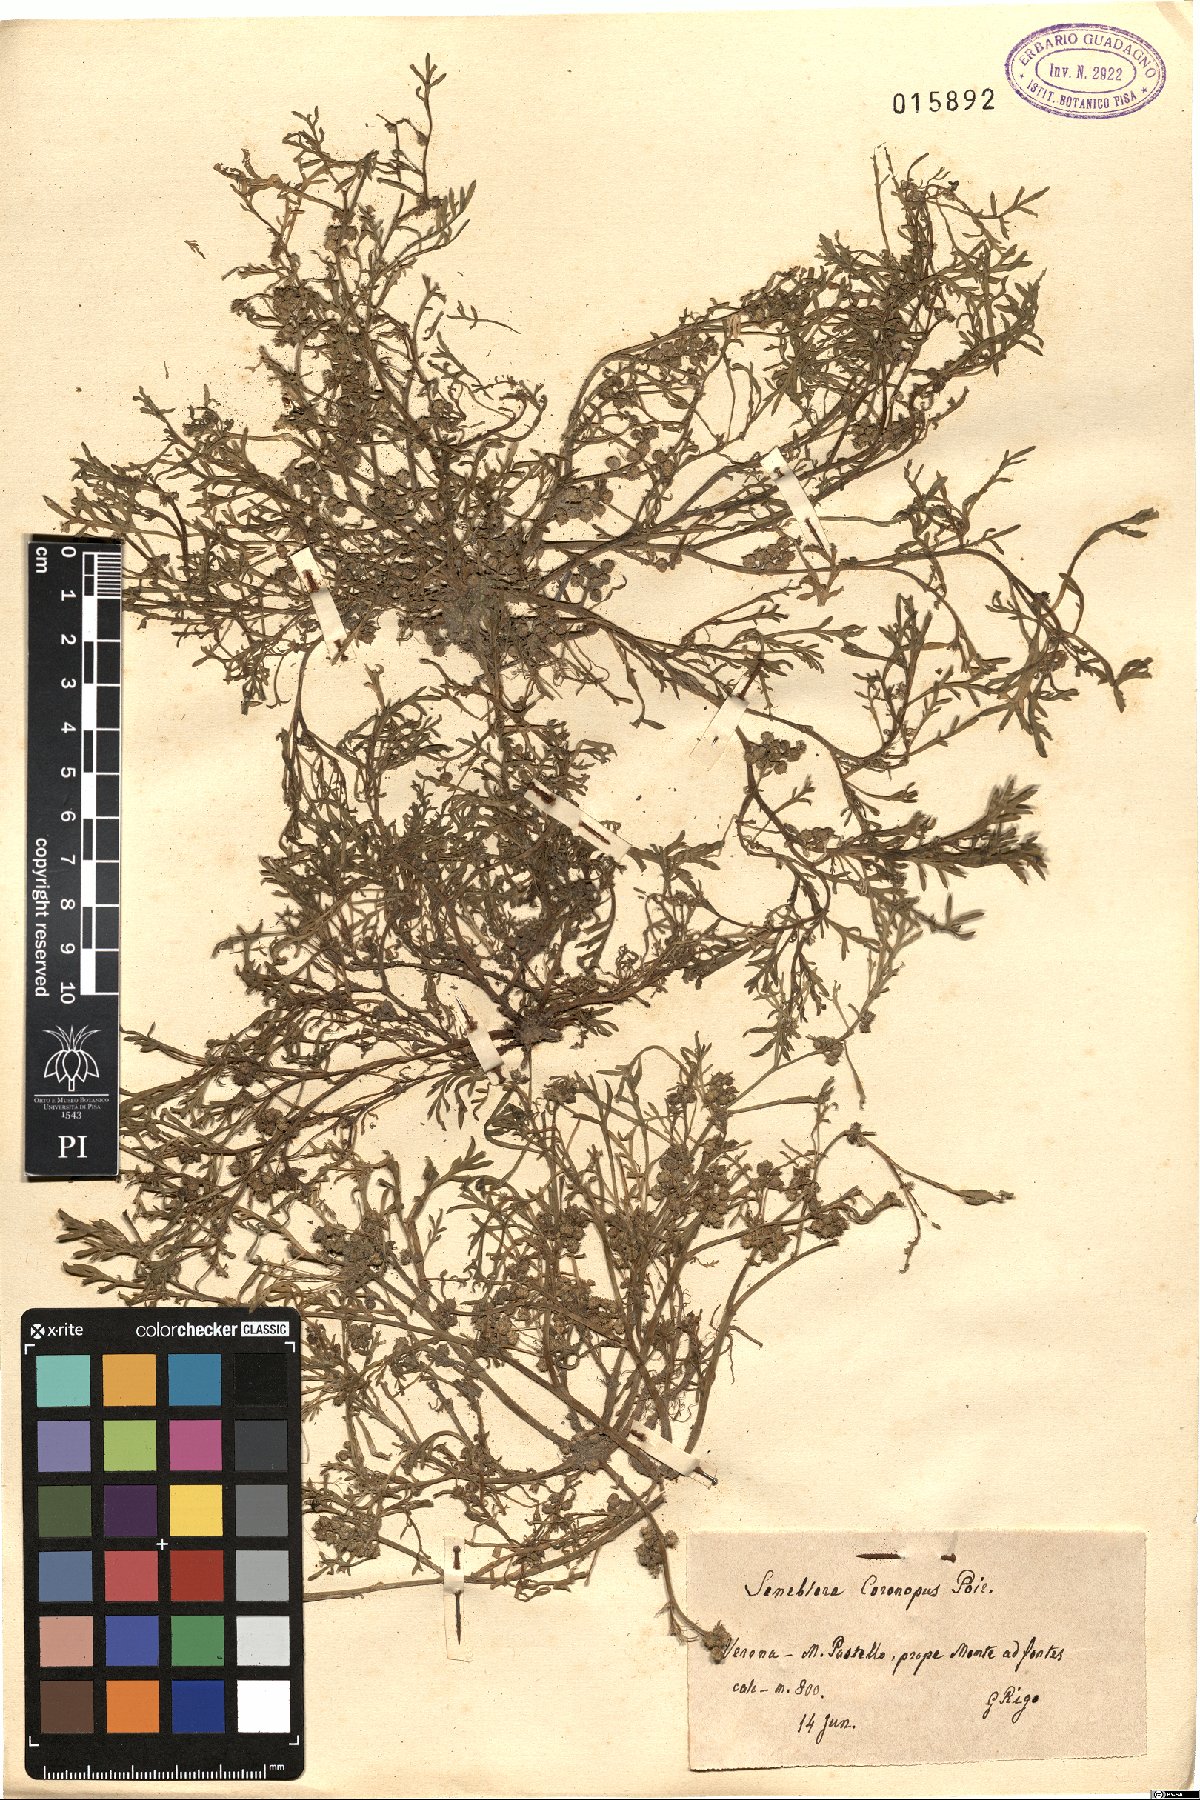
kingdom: Plantae
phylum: Tracheophyta
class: Magnoliopsida
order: Brassicales
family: Brassicaceae
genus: Lepidium
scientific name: Lepidium coronopus
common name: Greater swinecress
